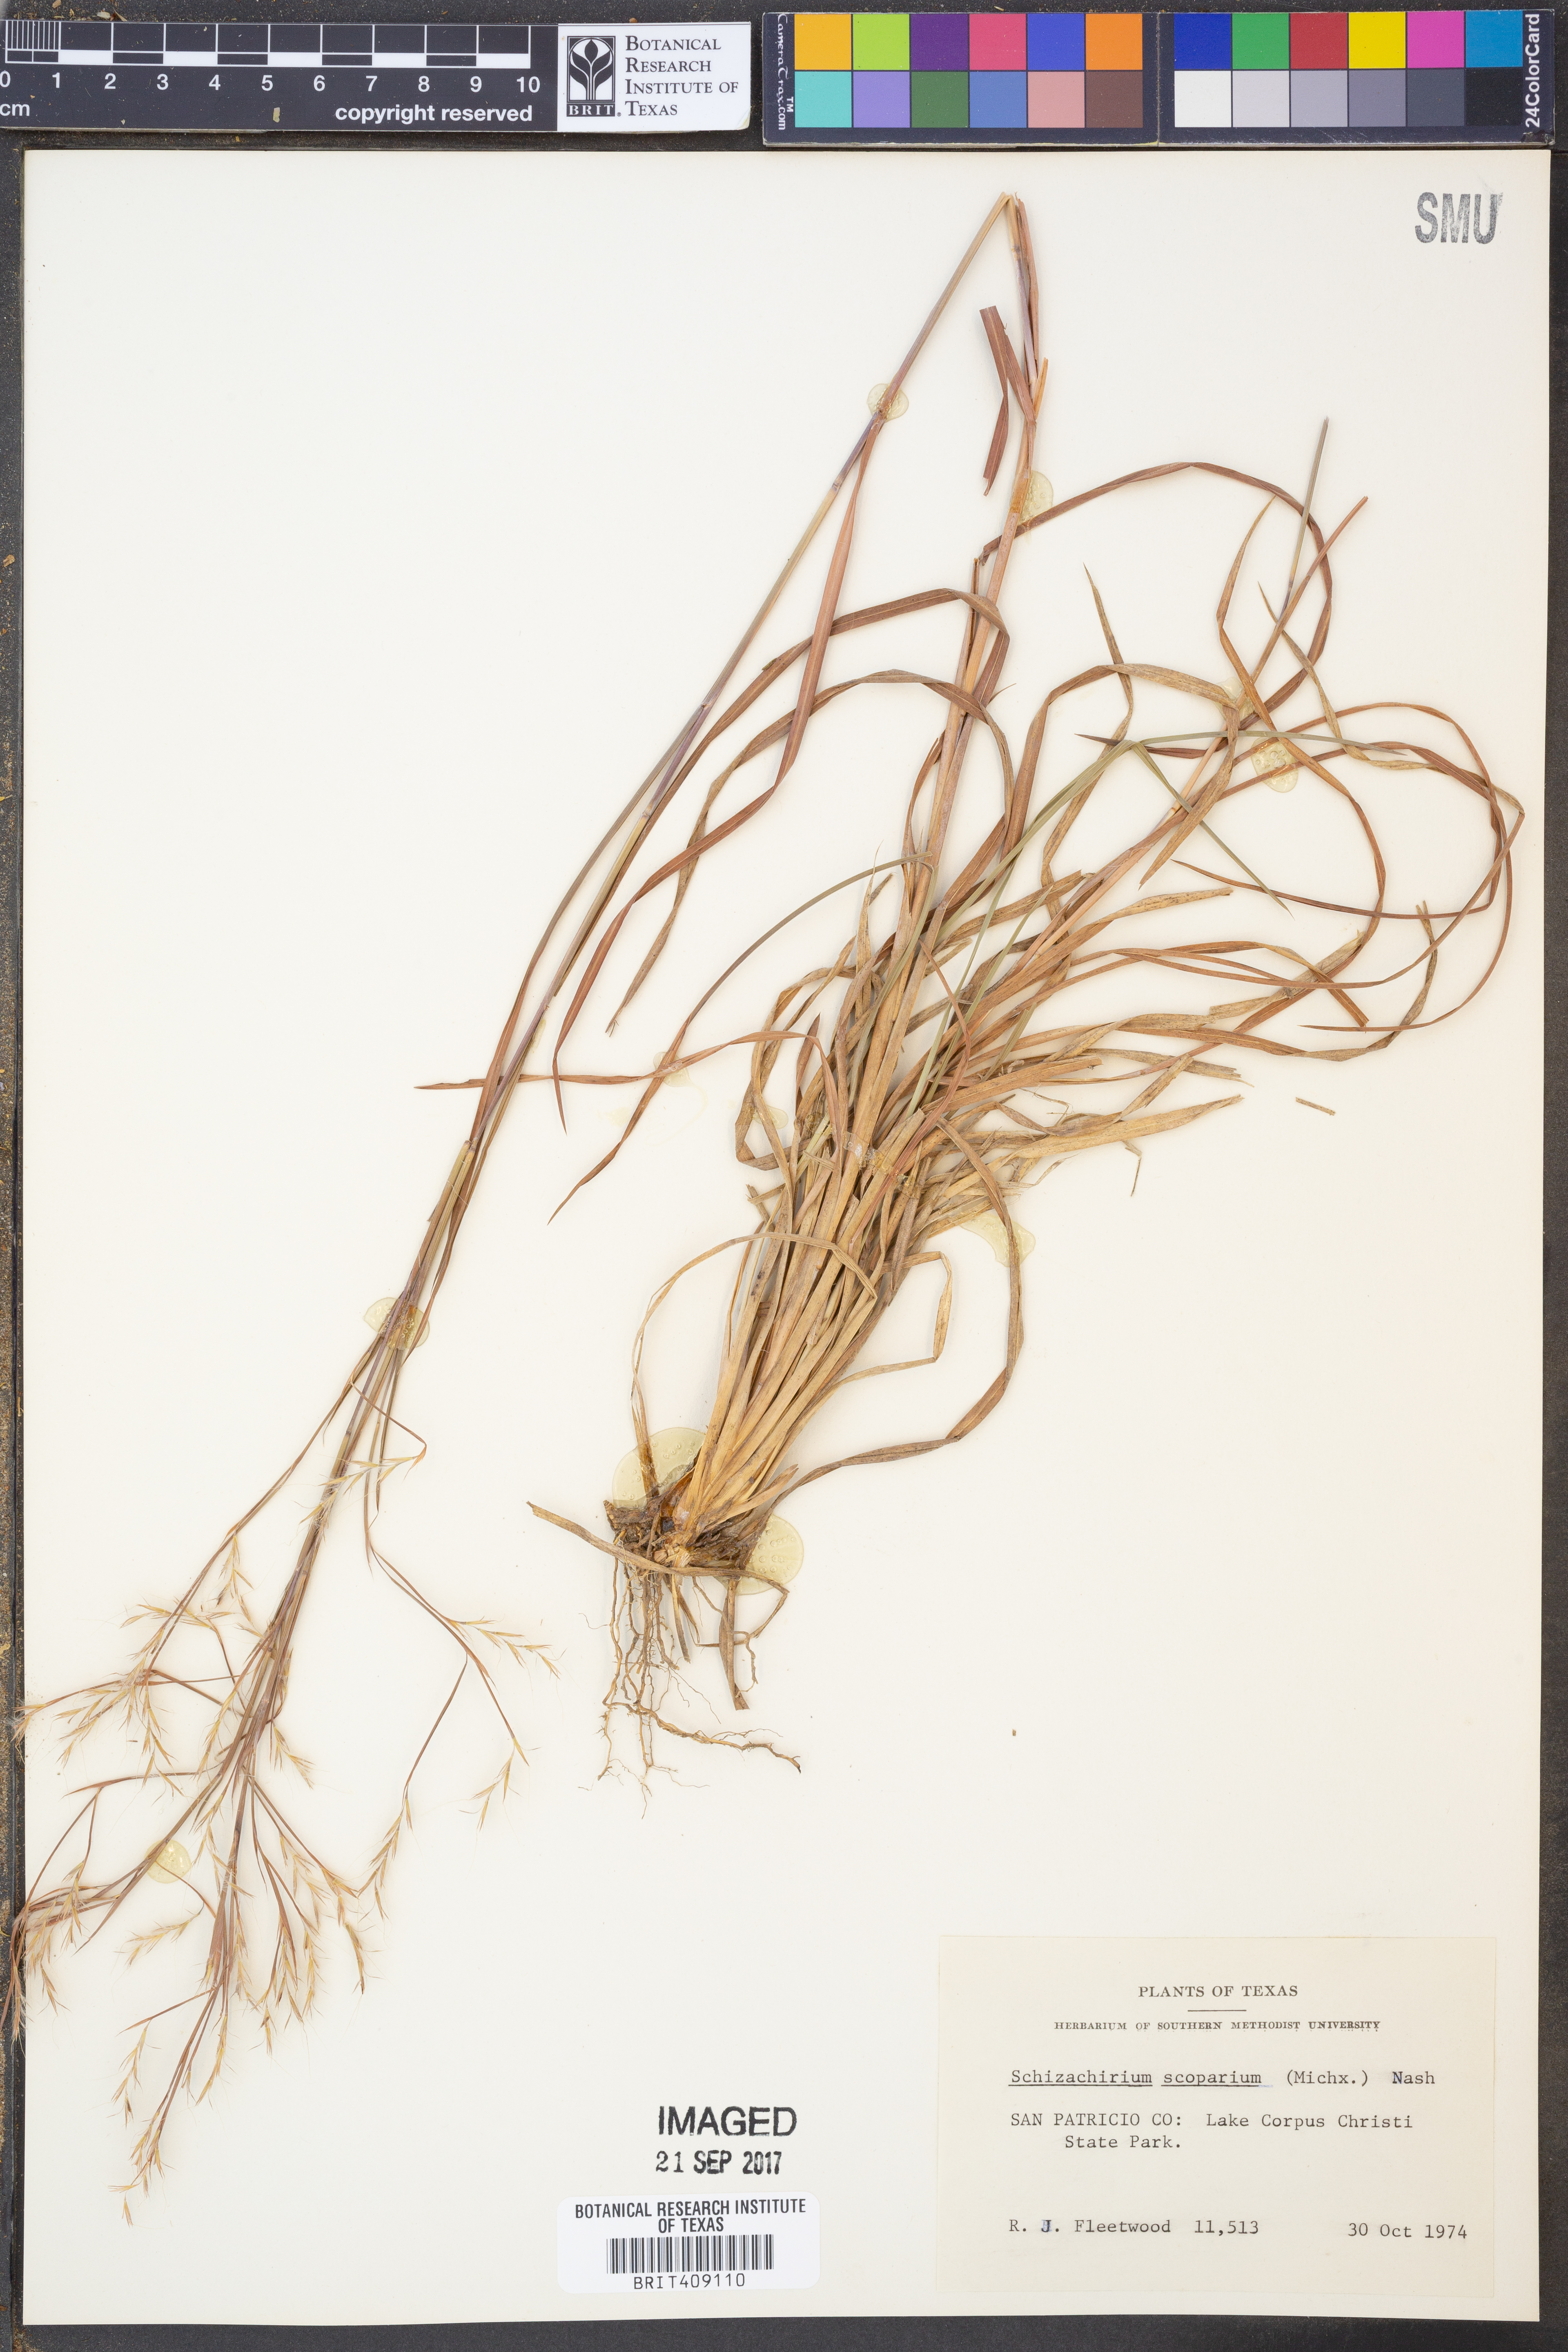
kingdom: Plantae
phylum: Tracheophyta
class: Liliopsida
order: Poales
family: Poaceae
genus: Schizachyrium
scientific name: Schizachyrium scoparium
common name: Little bluestem
